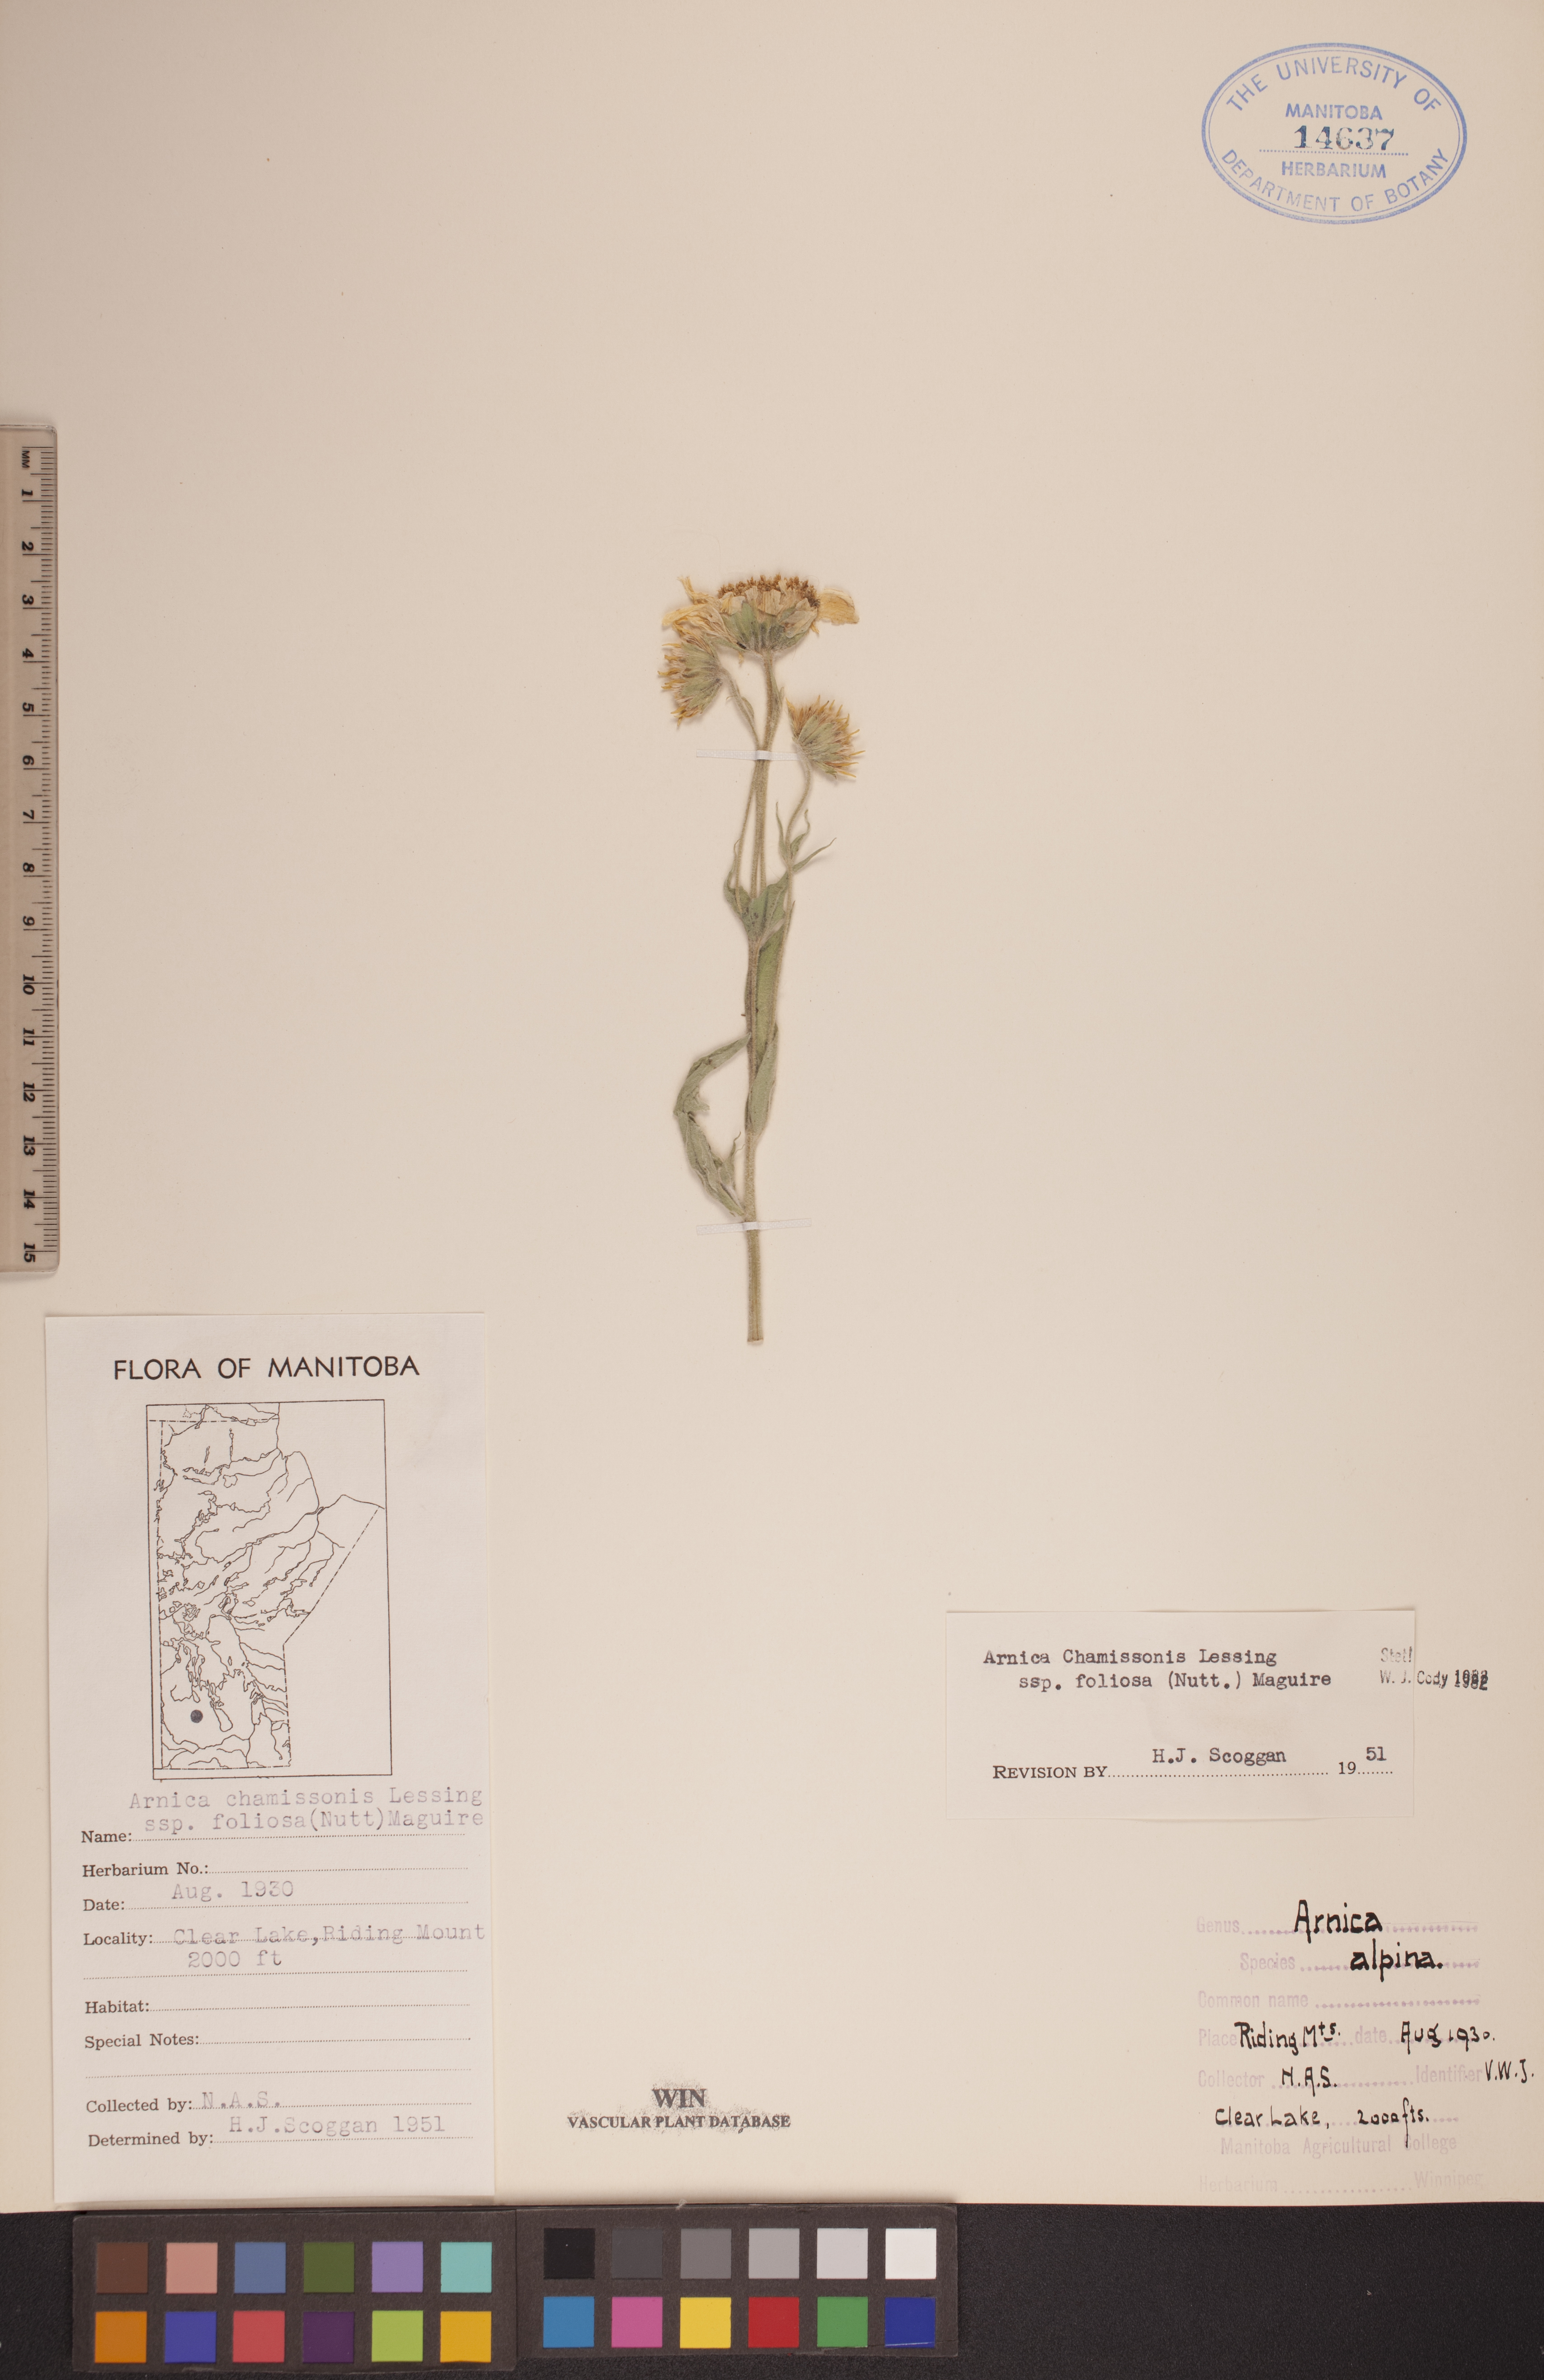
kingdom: Plantae
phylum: Tracheophyta
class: Magnoliopsida
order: Asterales
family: Asteraceae
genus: Arnica
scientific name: Arnica chamissonis
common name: Leafy arnica
